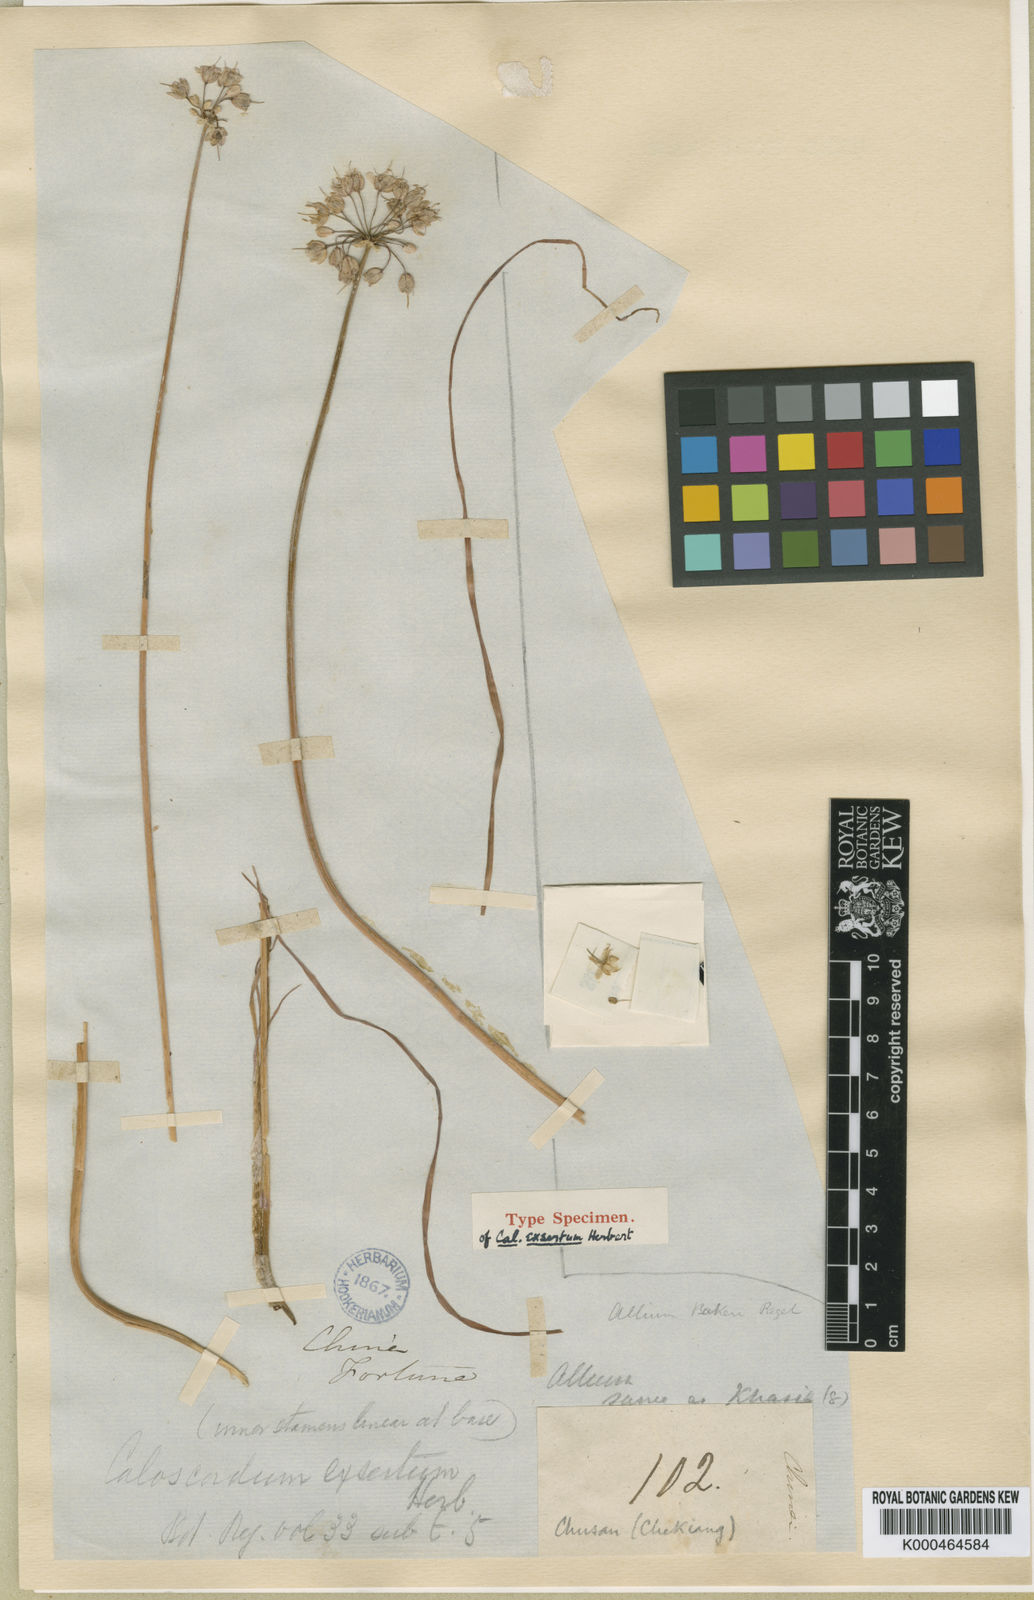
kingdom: Plantae
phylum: Tracheophyta
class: Liliopsida
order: Asparagales
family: Amaryllidaceae
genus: Allium
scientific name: Allium chinense
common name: Japanese scallion
